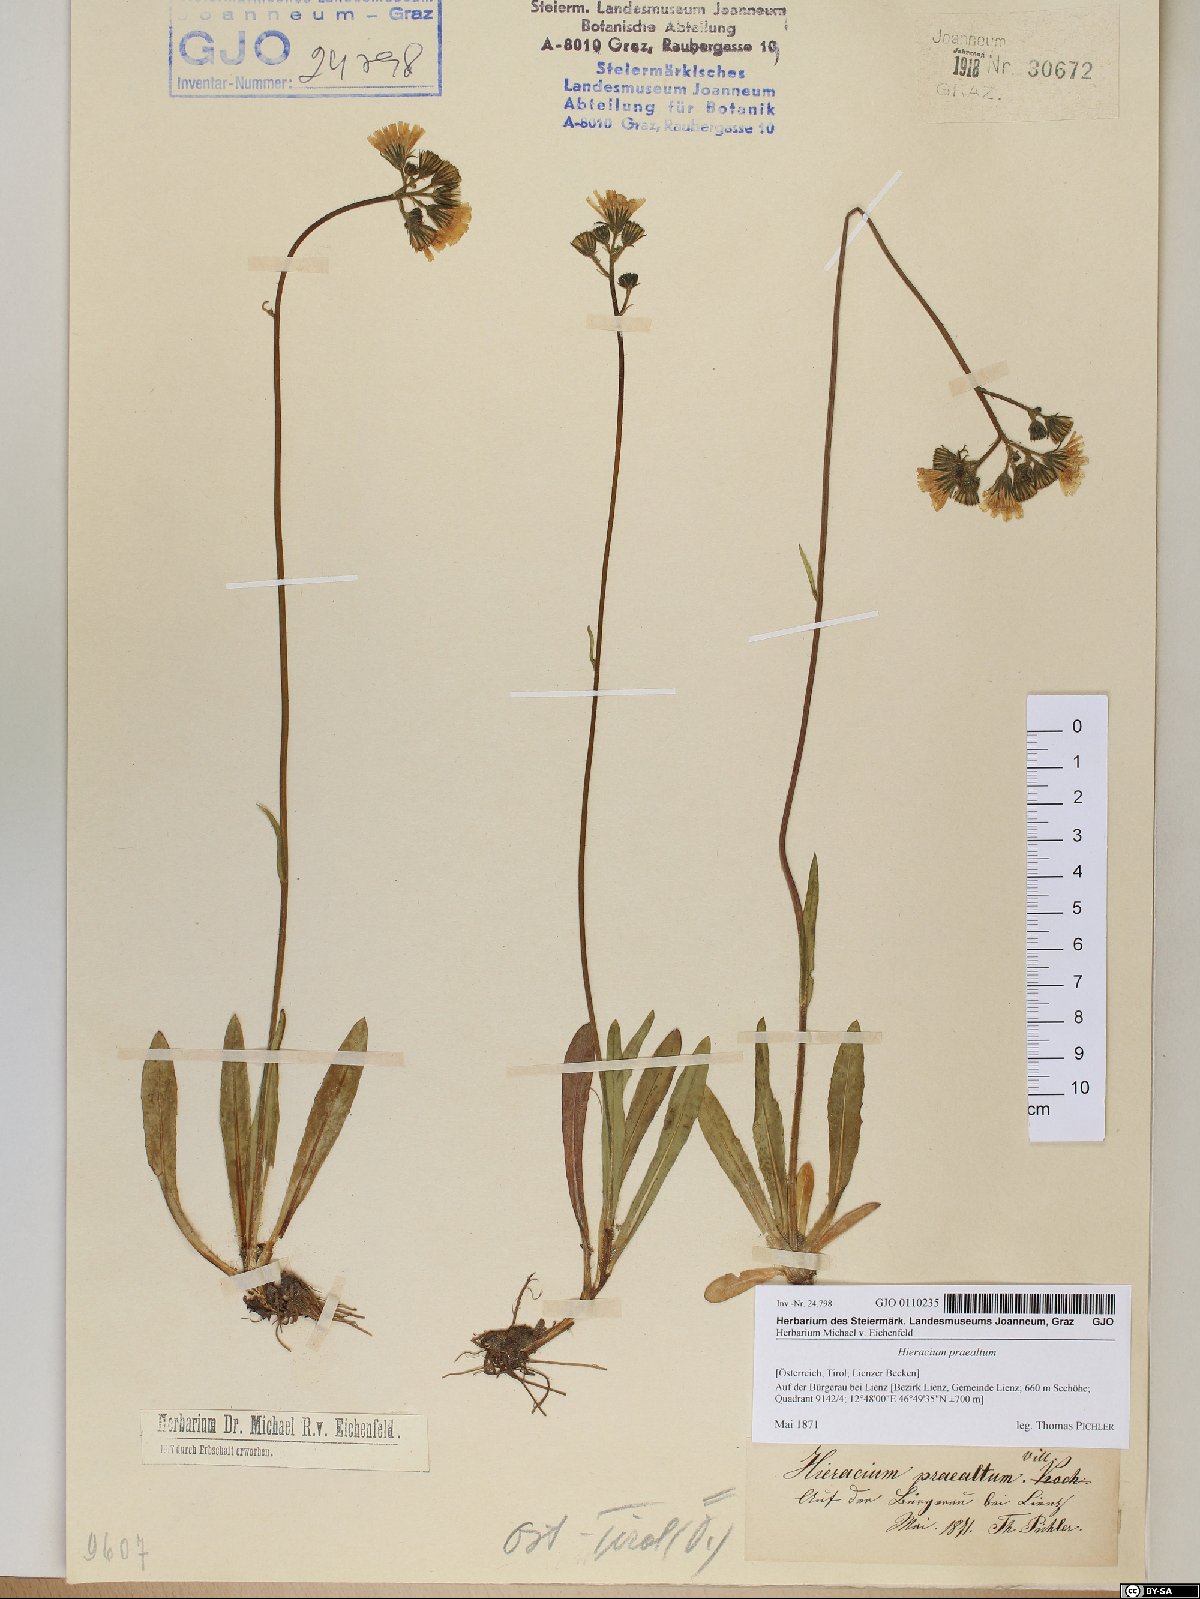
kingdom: Plantae
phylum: Tracheophyta
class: Magnoliopsida
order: Asterales
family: Asteraceae
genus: Pilosella
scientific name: Pilosella piloselloides
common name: Glaucous king-devil
